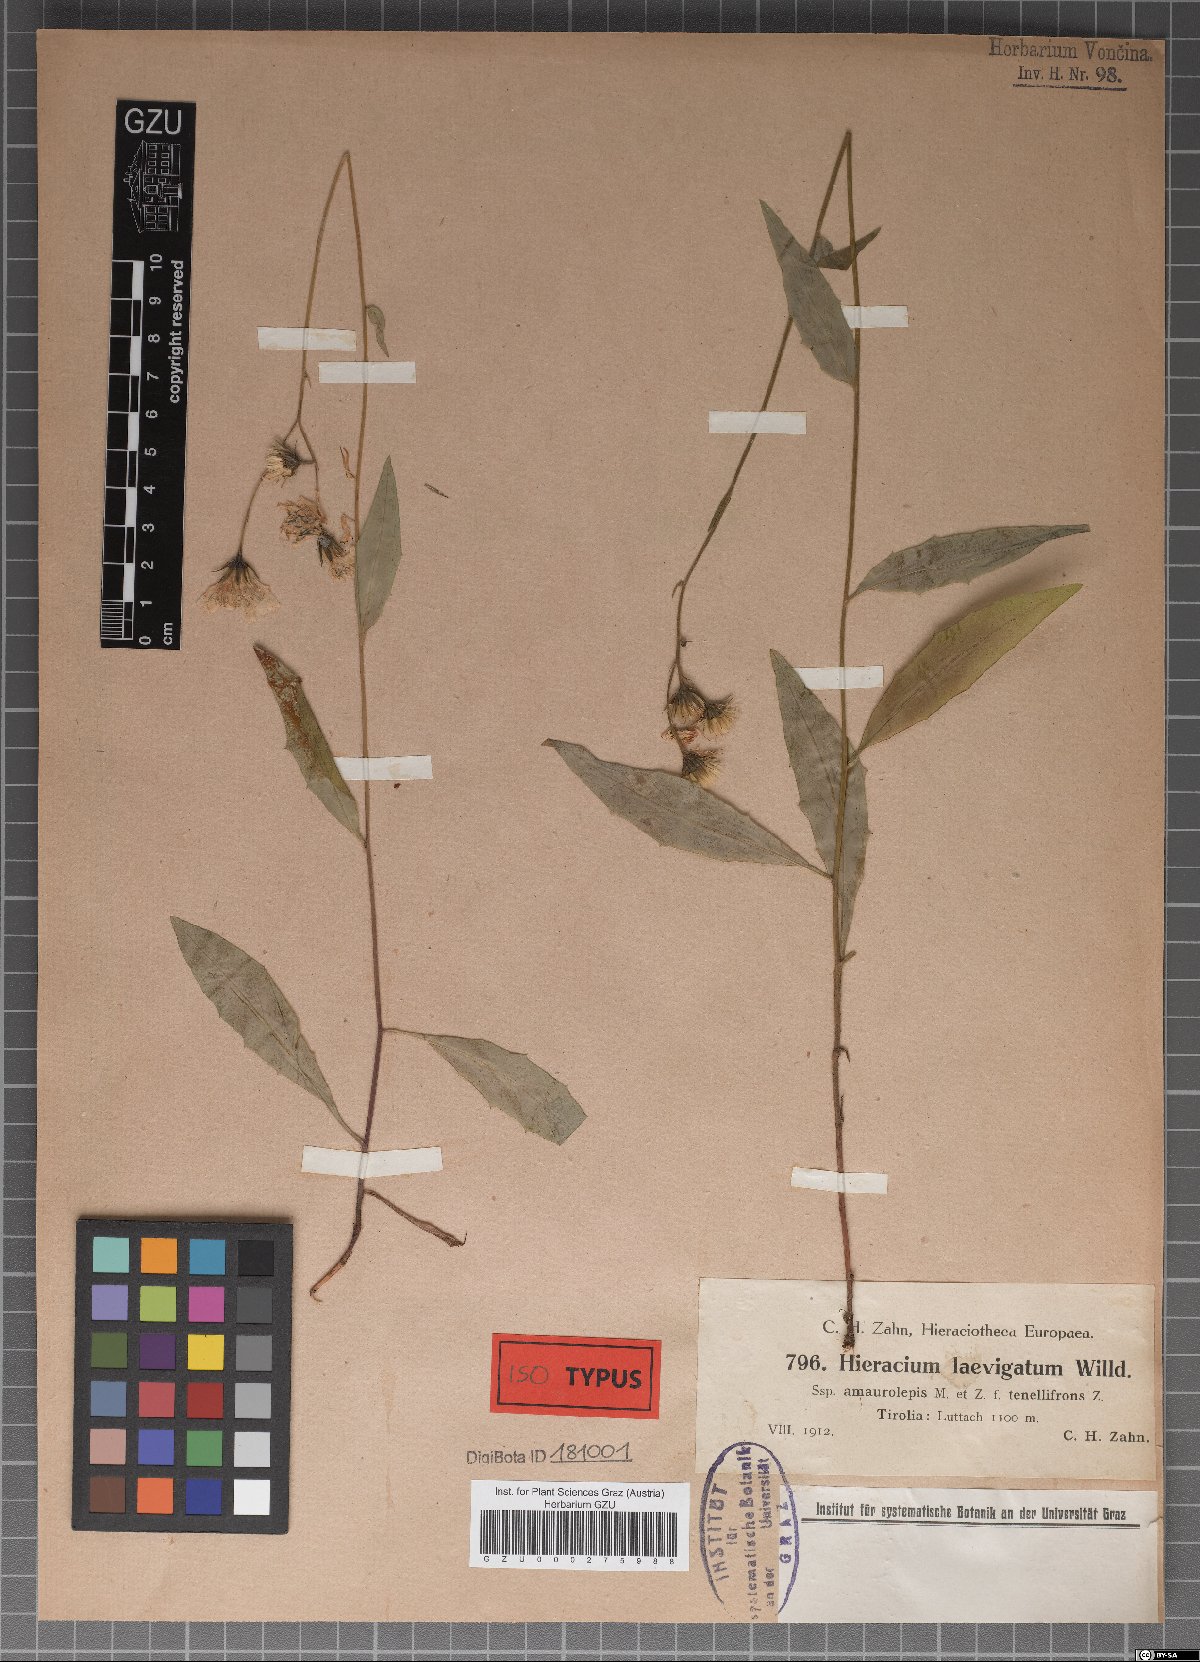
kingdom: Plantae
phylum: Tracheophyta
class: Magnoliopsida
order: Asterales
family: Asteraceae
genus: Hieracium
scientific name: Hieracium laevigatum
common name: Smooth hawkweed
